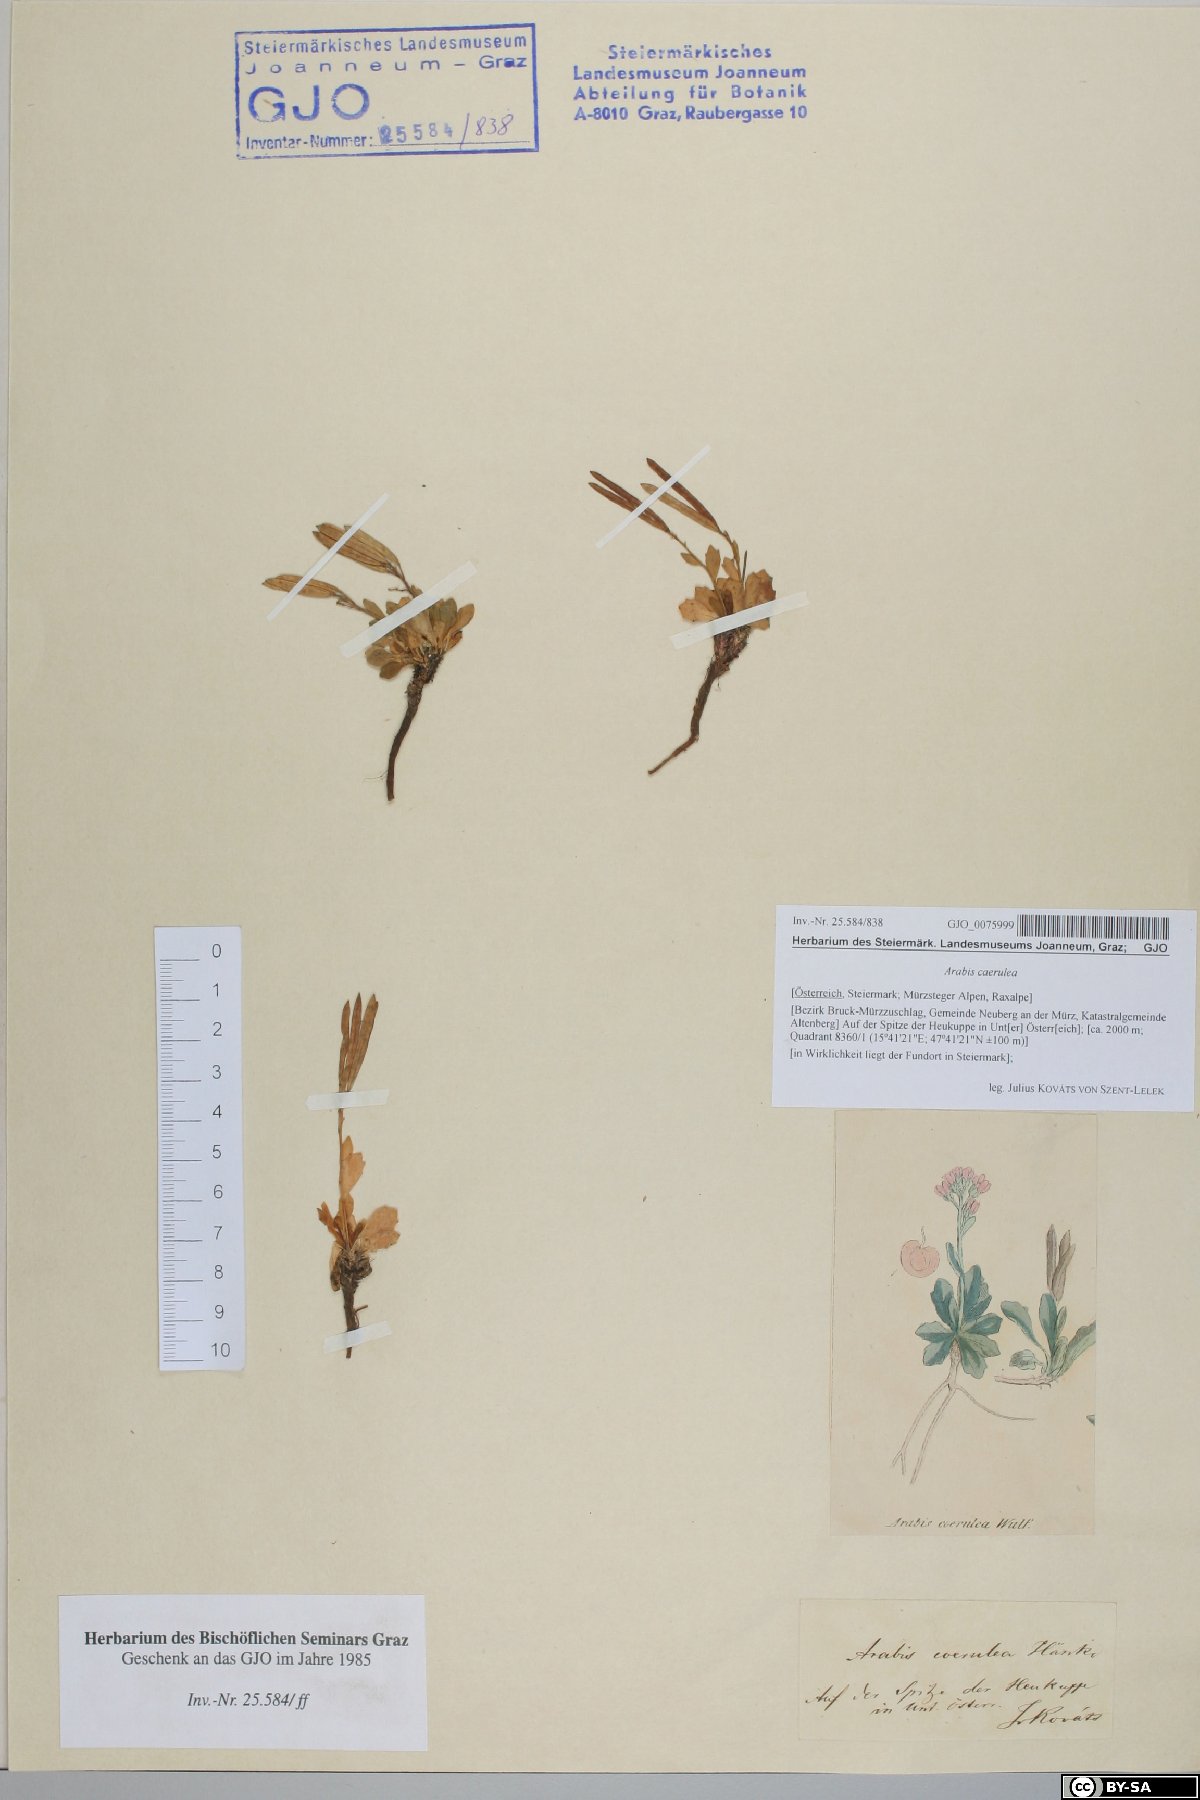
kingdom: Plantae
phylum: Tracheophyta
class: Magnoliopsida
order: Brassicales
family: Brassicaceae
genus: Arabis
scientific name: Arabis caerulea
